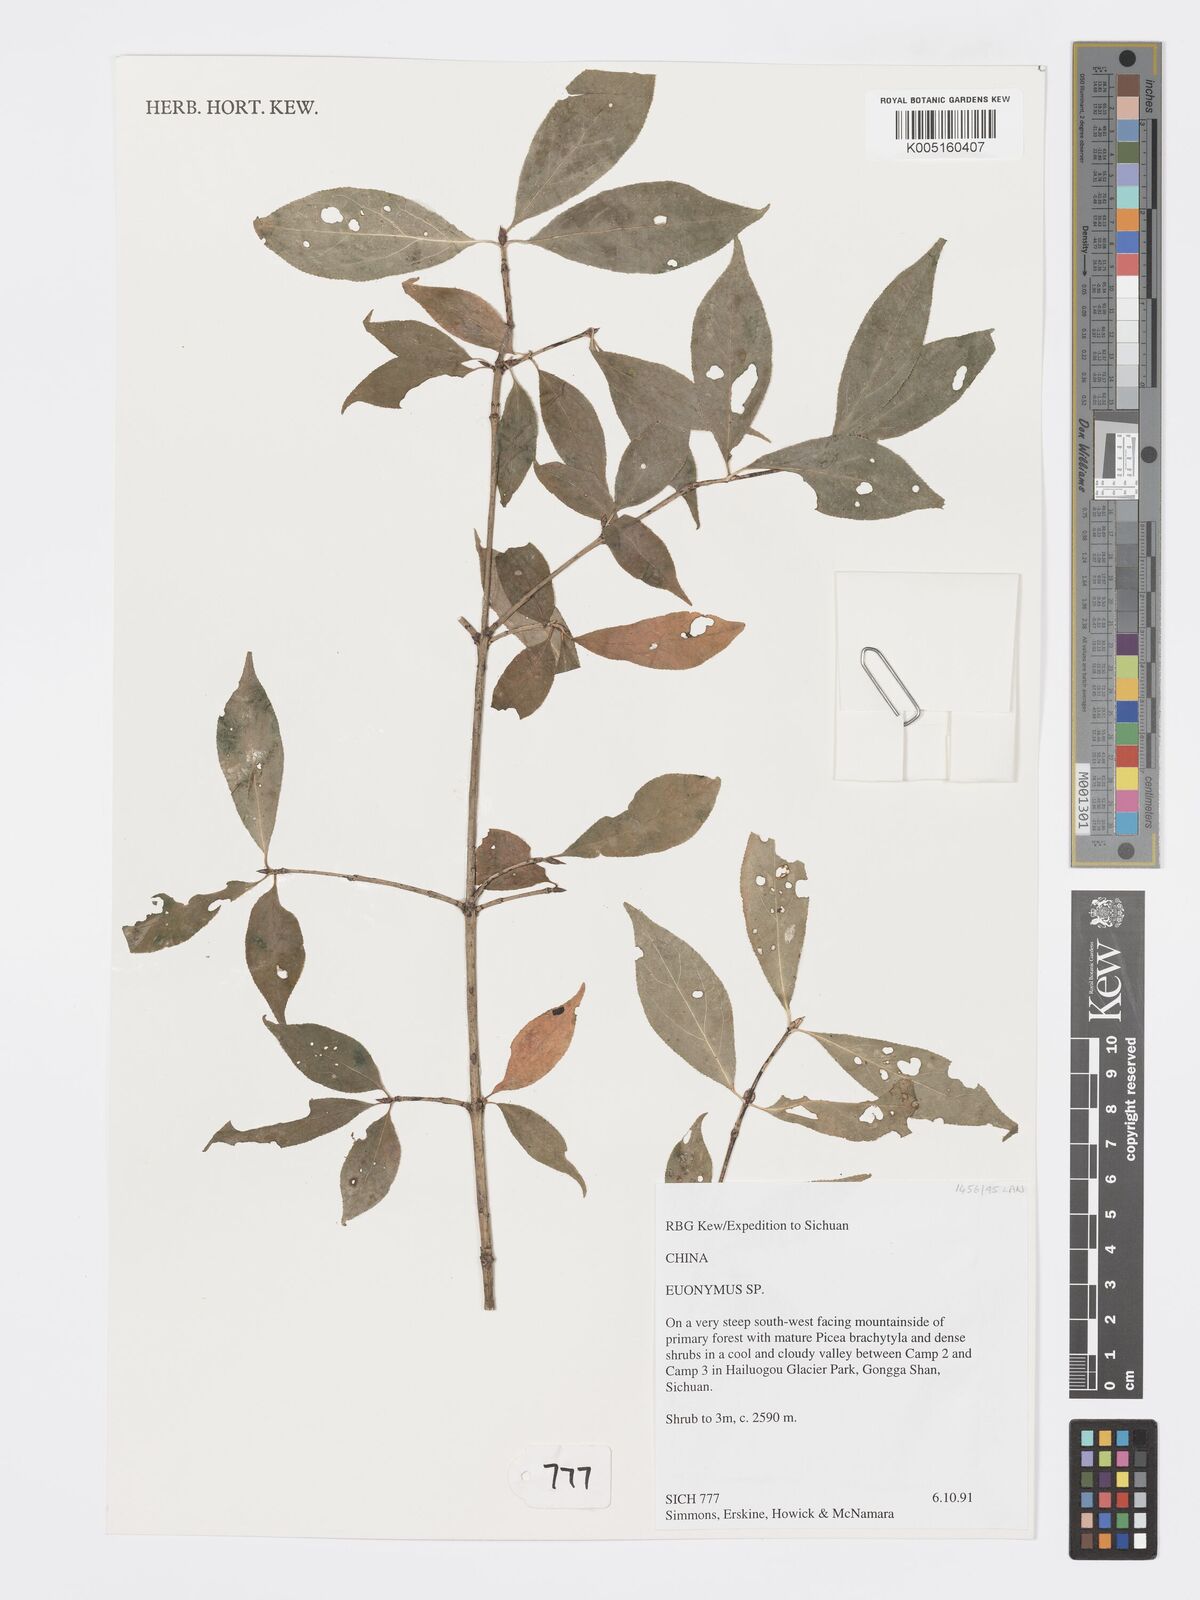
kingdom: Plantae
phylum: Tracheophyta
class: Magnoliopsida
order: Celastrales
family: Celastraceae
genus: Euonymus
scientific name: Euonymus
